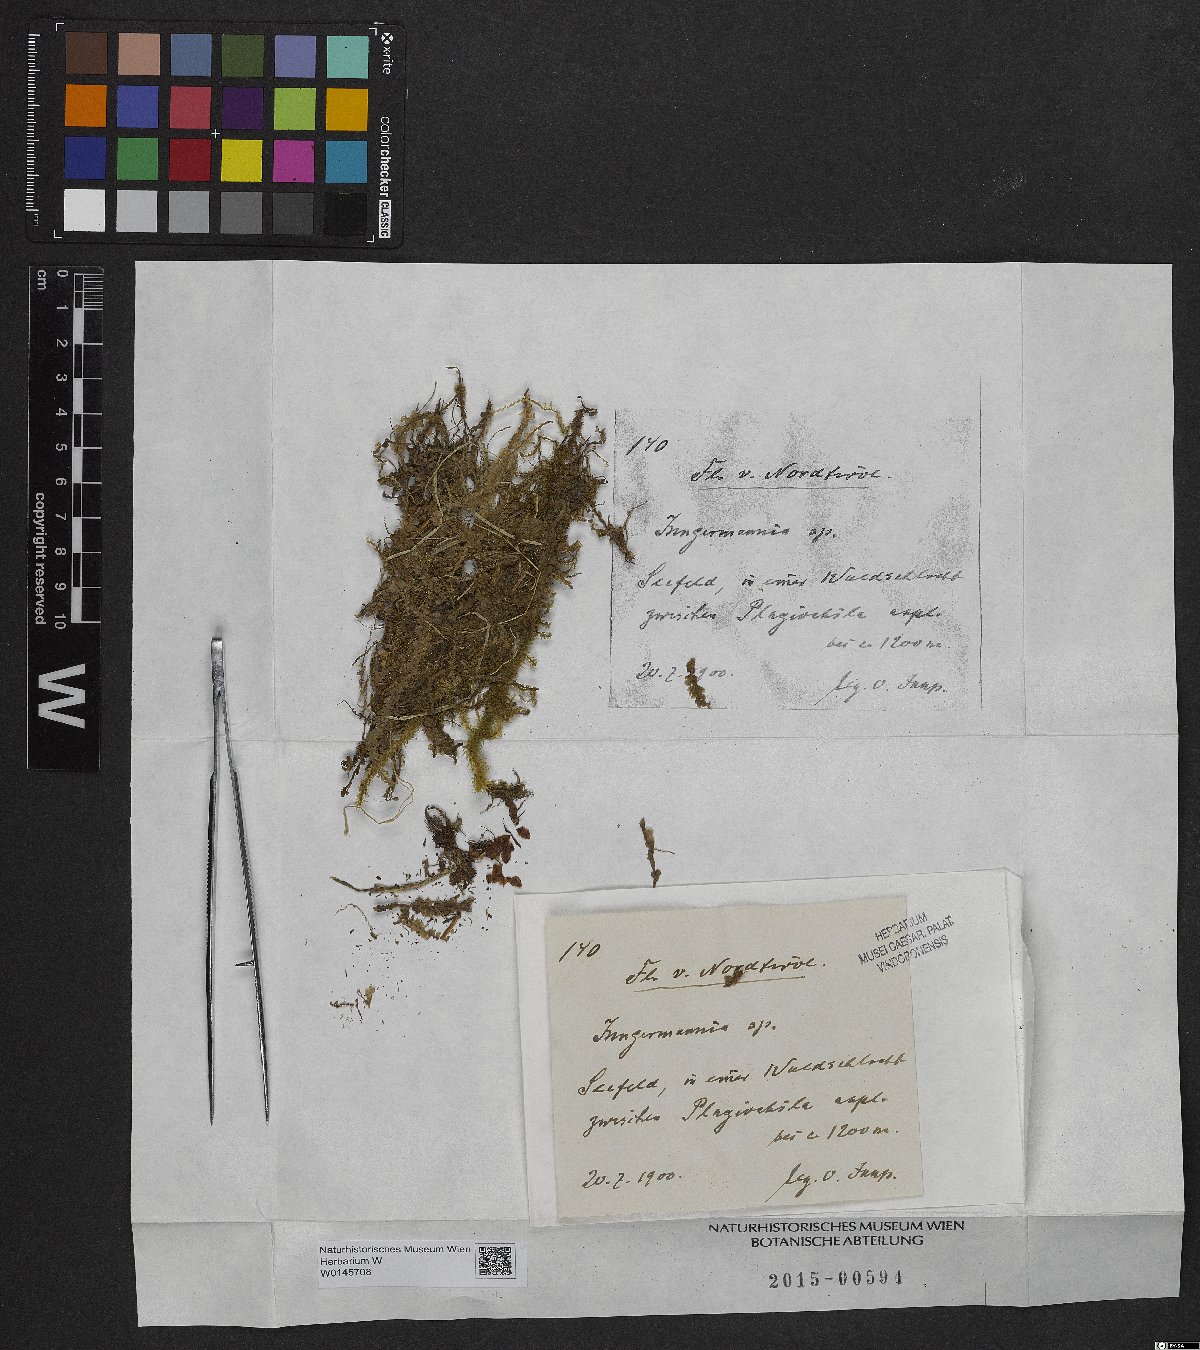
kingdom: Plantae
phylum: Marchantiophyta
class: Jungermanniopsida
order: Jungermanniales
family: Jungermanniaceae
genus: Jungermannia
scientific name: Jungermannia
